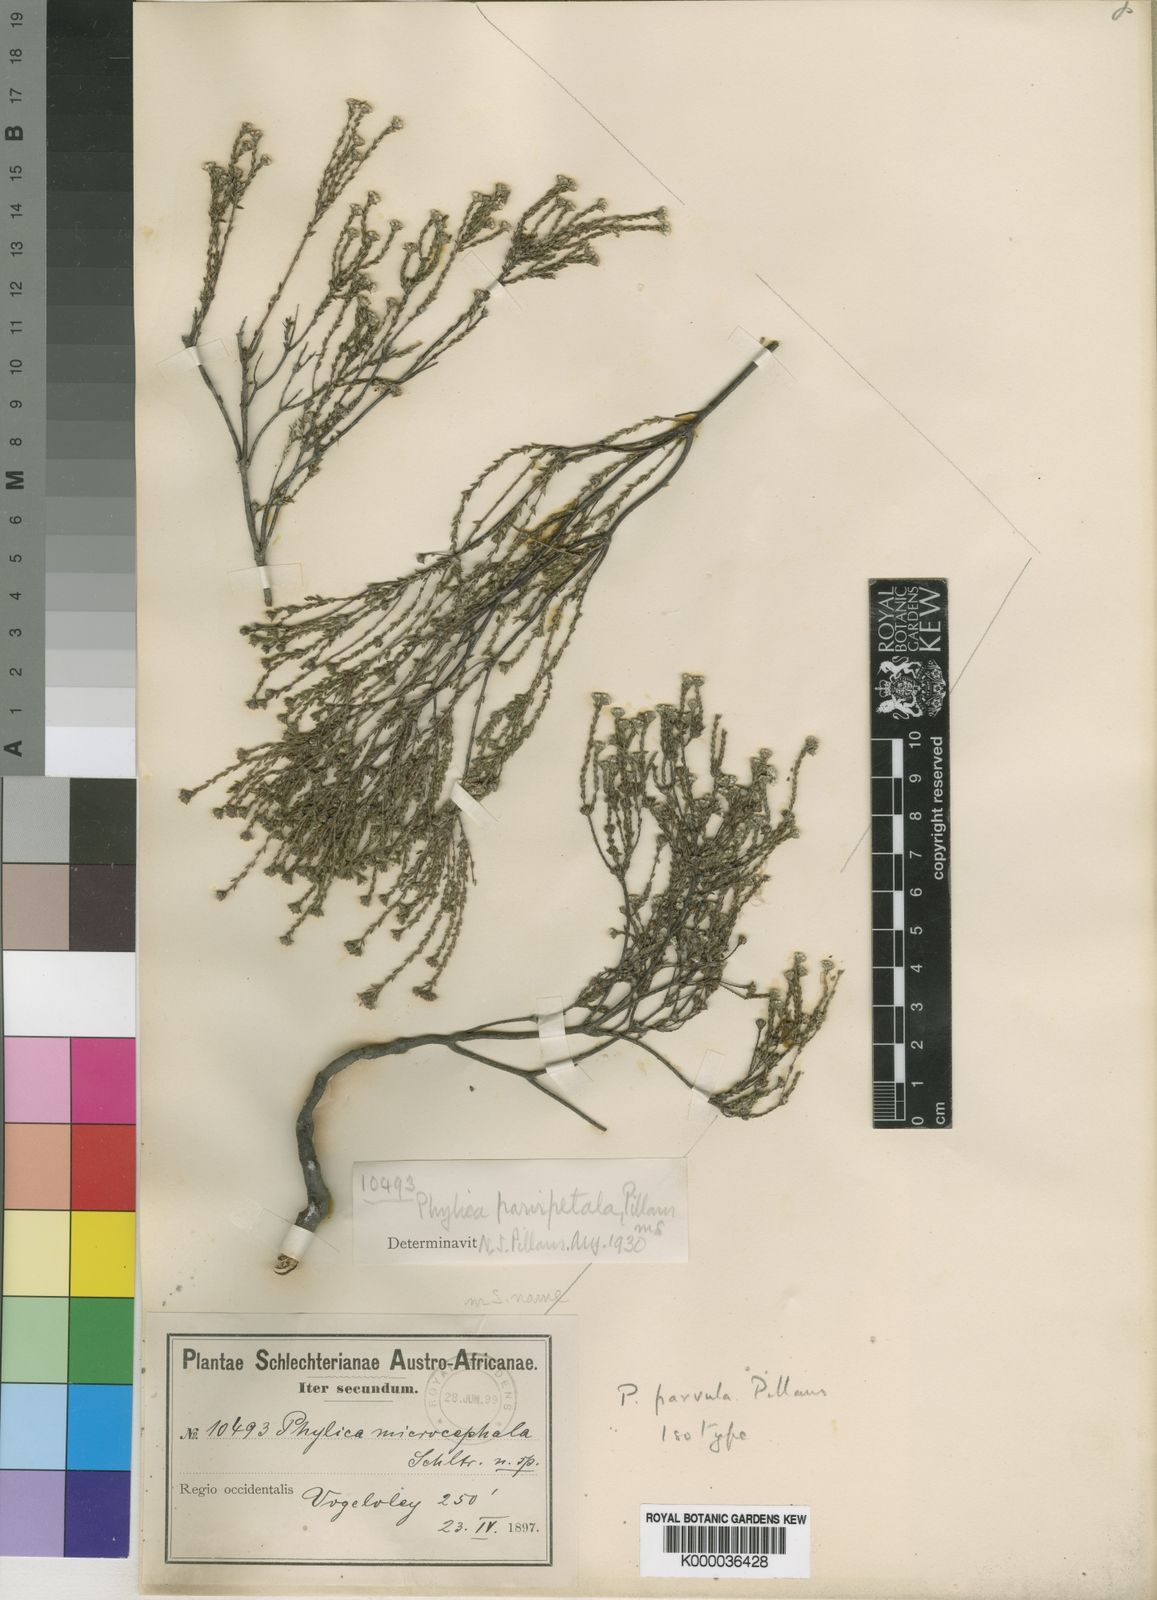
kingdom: Plantae
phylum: Tracheophyta
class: Magnoliopsida
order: Rosales
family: Rhamnaceae
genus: Phylica
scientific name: Phylica parvula
